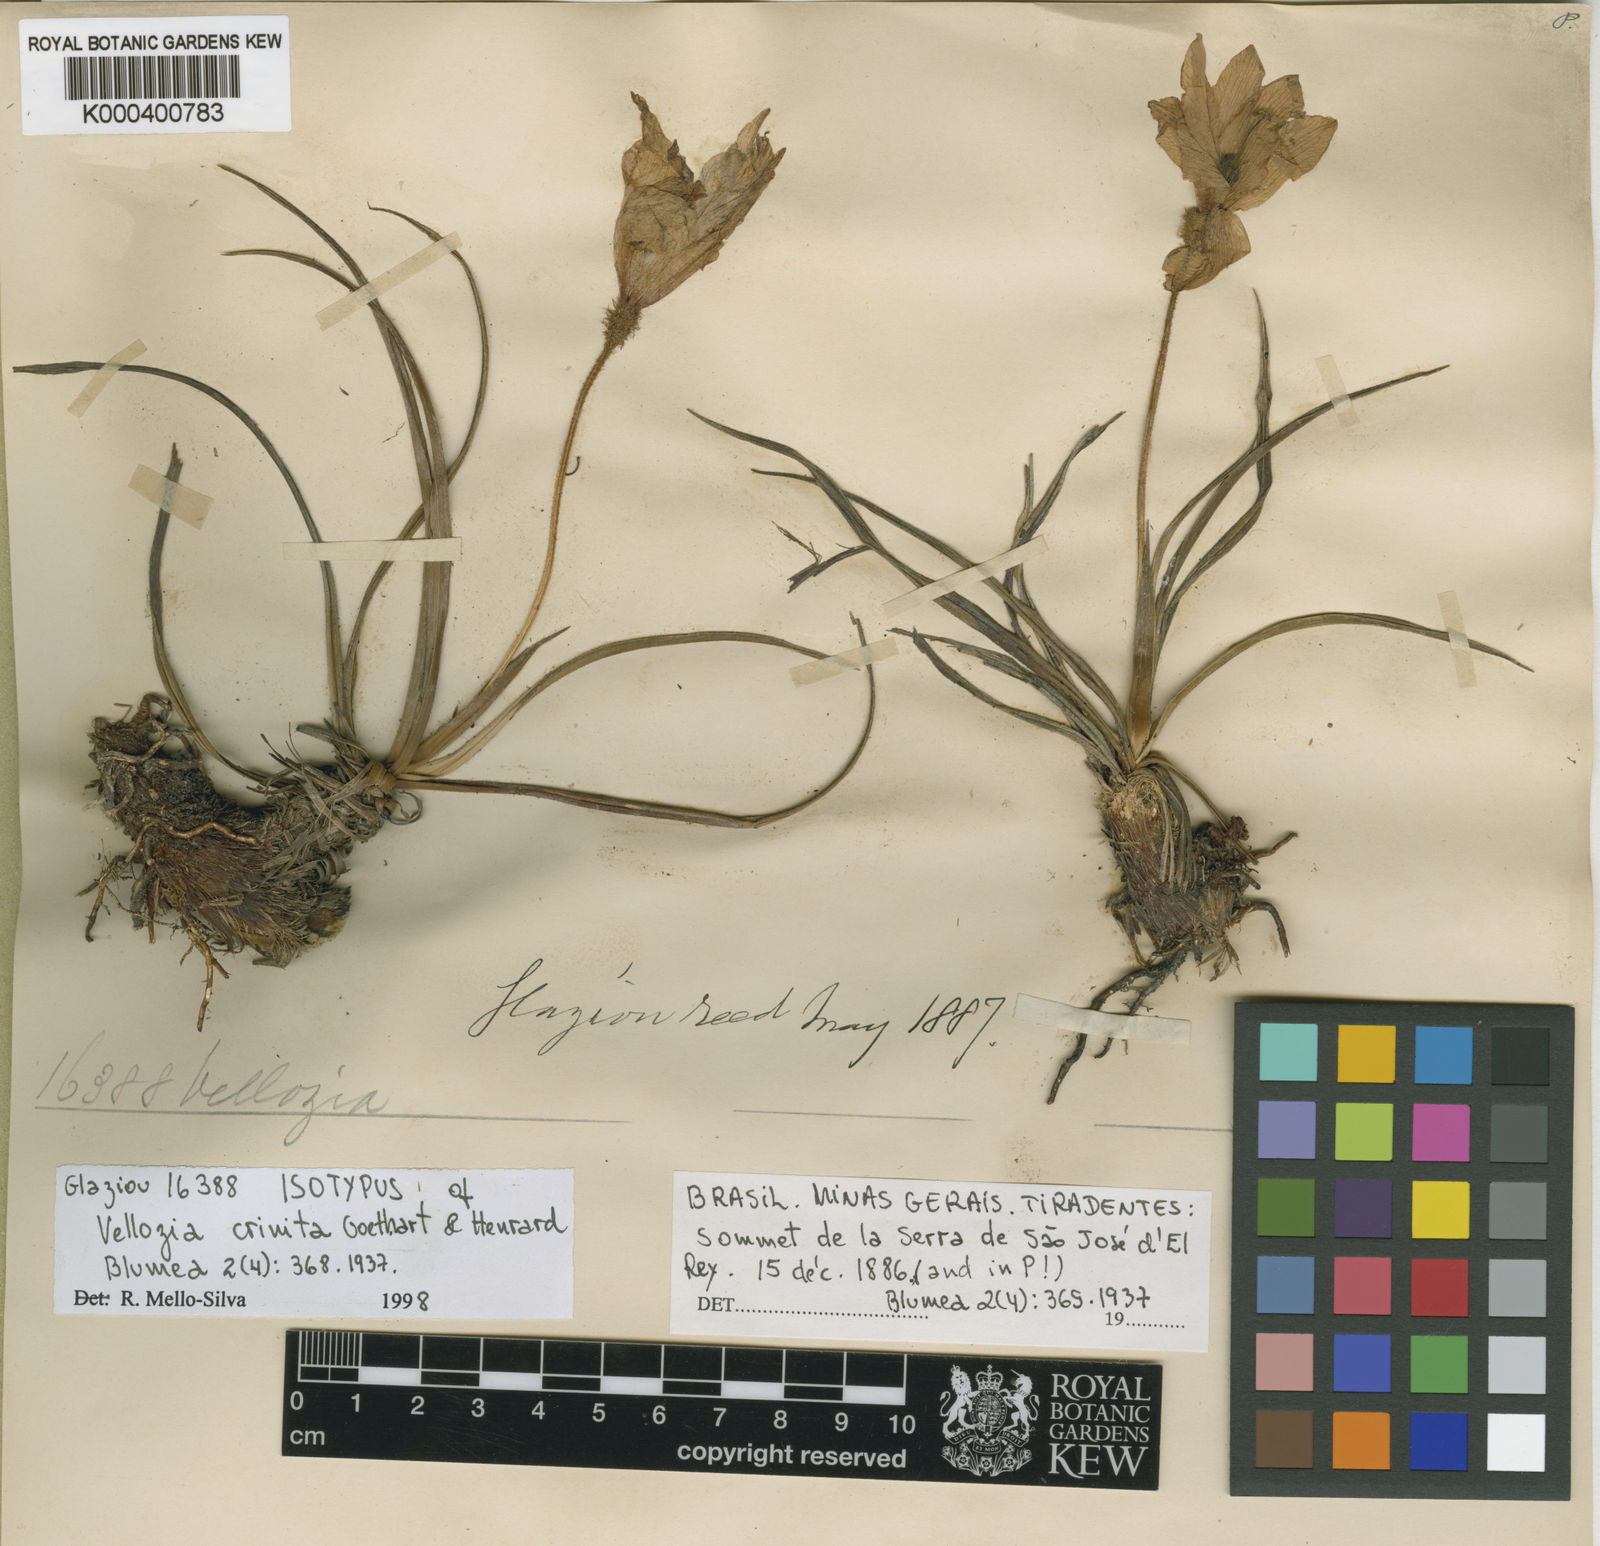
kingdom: Plantae
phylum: Tracheophyta
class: Liliopsida
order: Pandanales
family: Velloziaceae
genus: Vellozia
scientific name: Vellozia crinita
